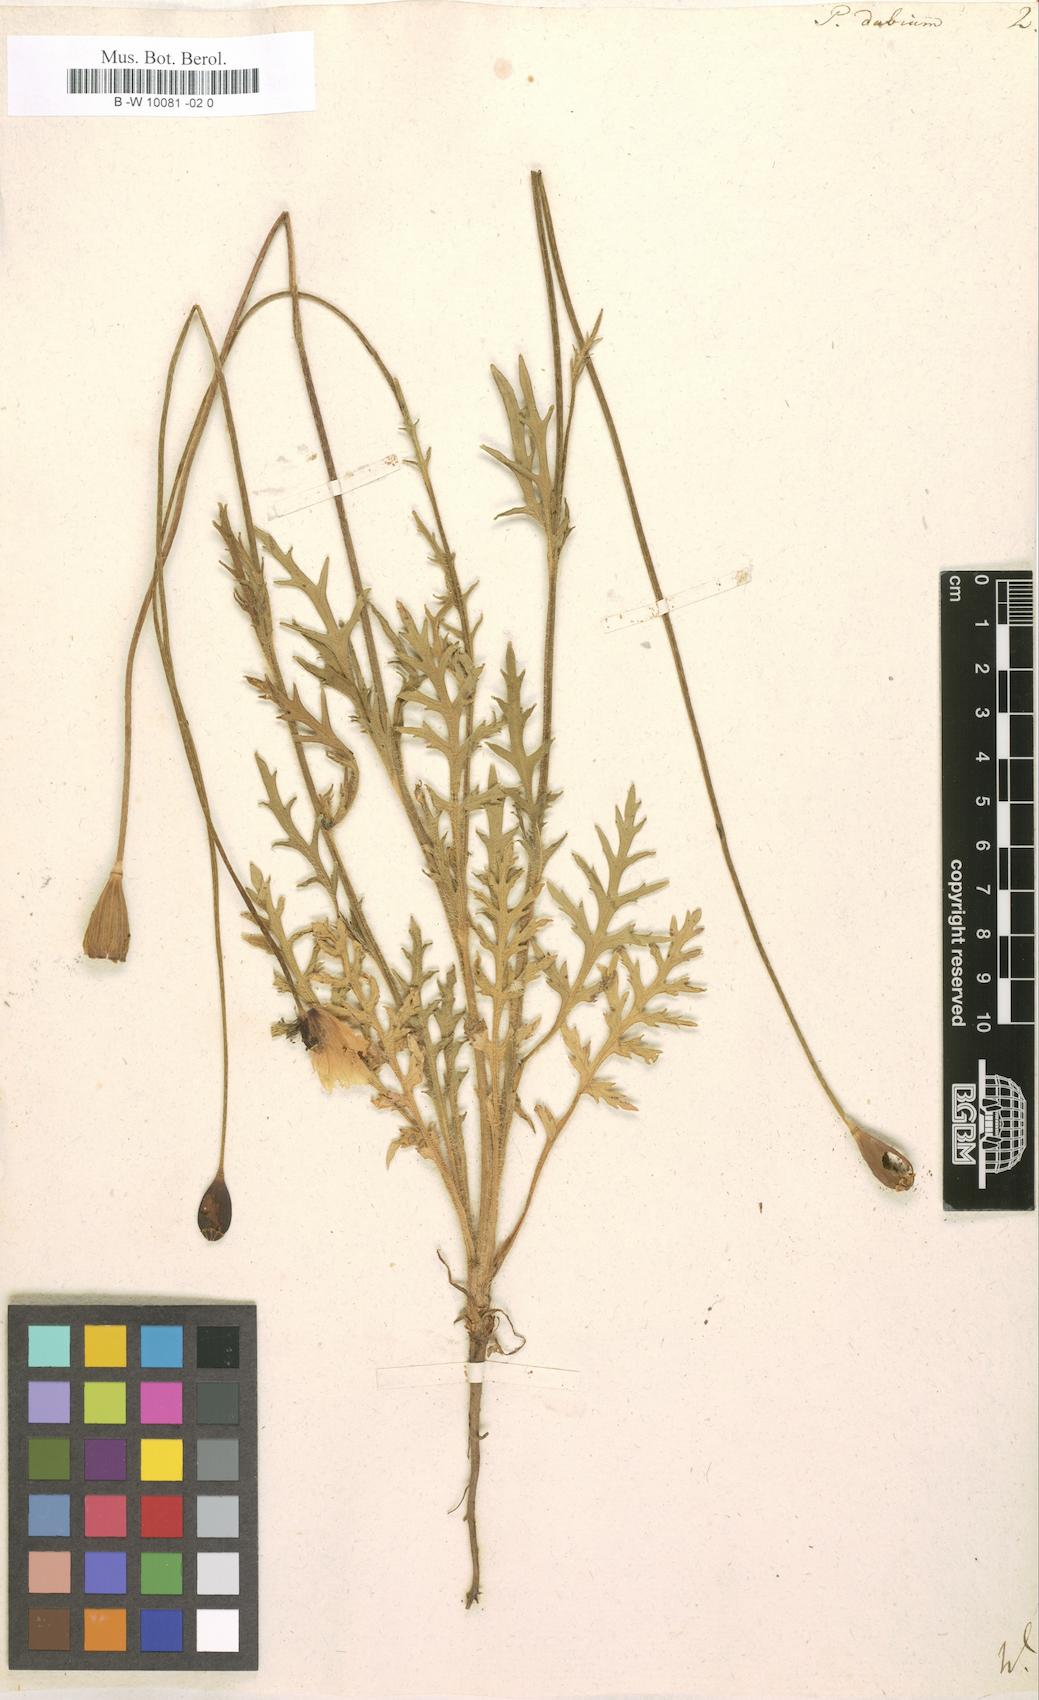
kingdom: Plantae
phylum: Tracheophyta
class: Magnoliopsida
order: Ranunculales
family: Papaveraceae
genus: Papaver
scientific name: Papaver dubium
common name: Long-headed poppy
